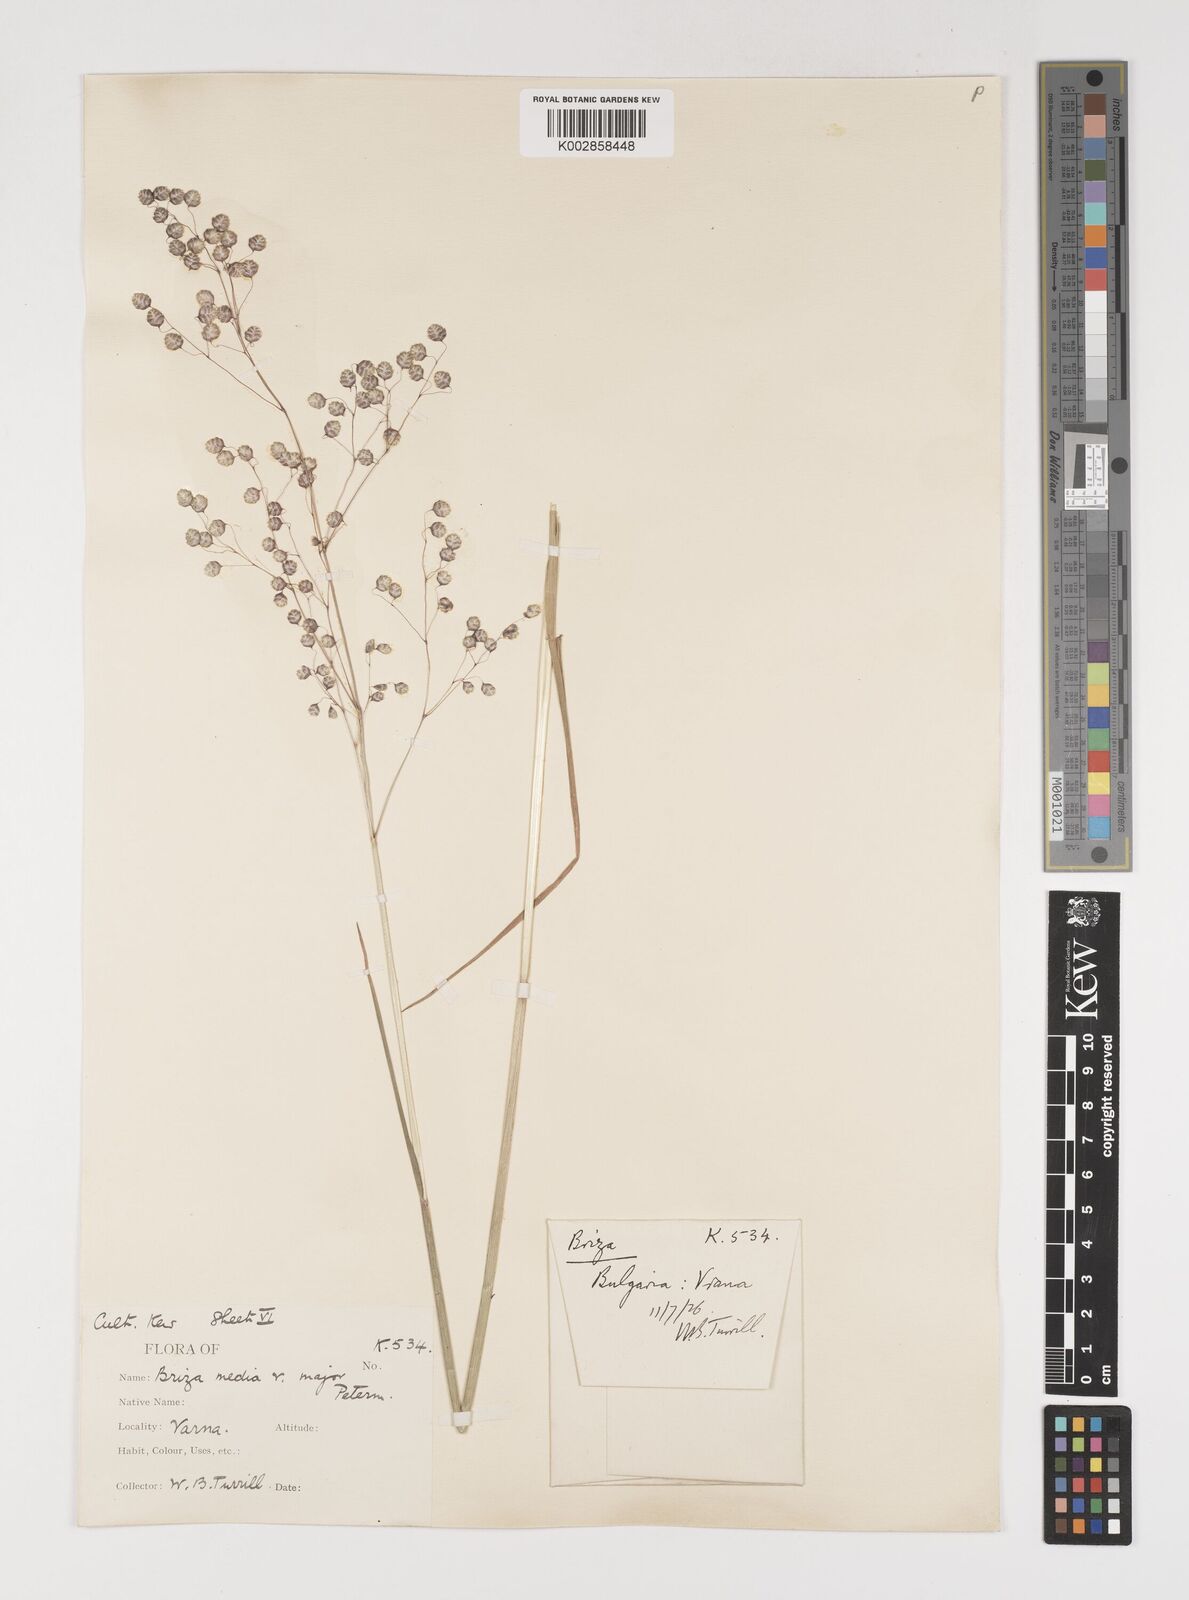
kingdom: Plantae
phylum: Tracheophyta
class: Liliopsida
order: Poales
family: Poaceae
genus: Briza
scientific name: Briza media
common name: Quaking grass
